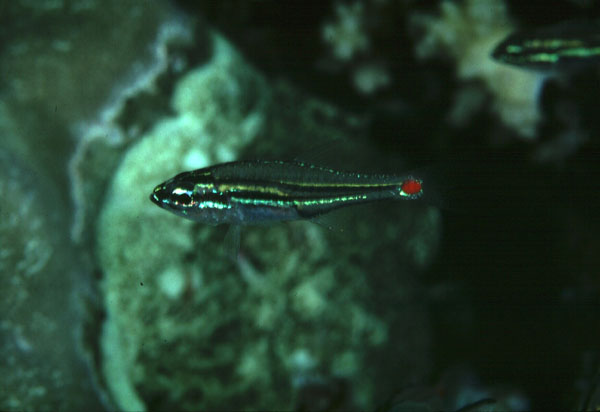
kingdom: Animalia
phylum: Chordata
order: Perciformes
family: Apogonidae
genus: Ostorhinchus
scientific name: Ostorhinchus parvulus
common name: Red-spot cardinalfish
